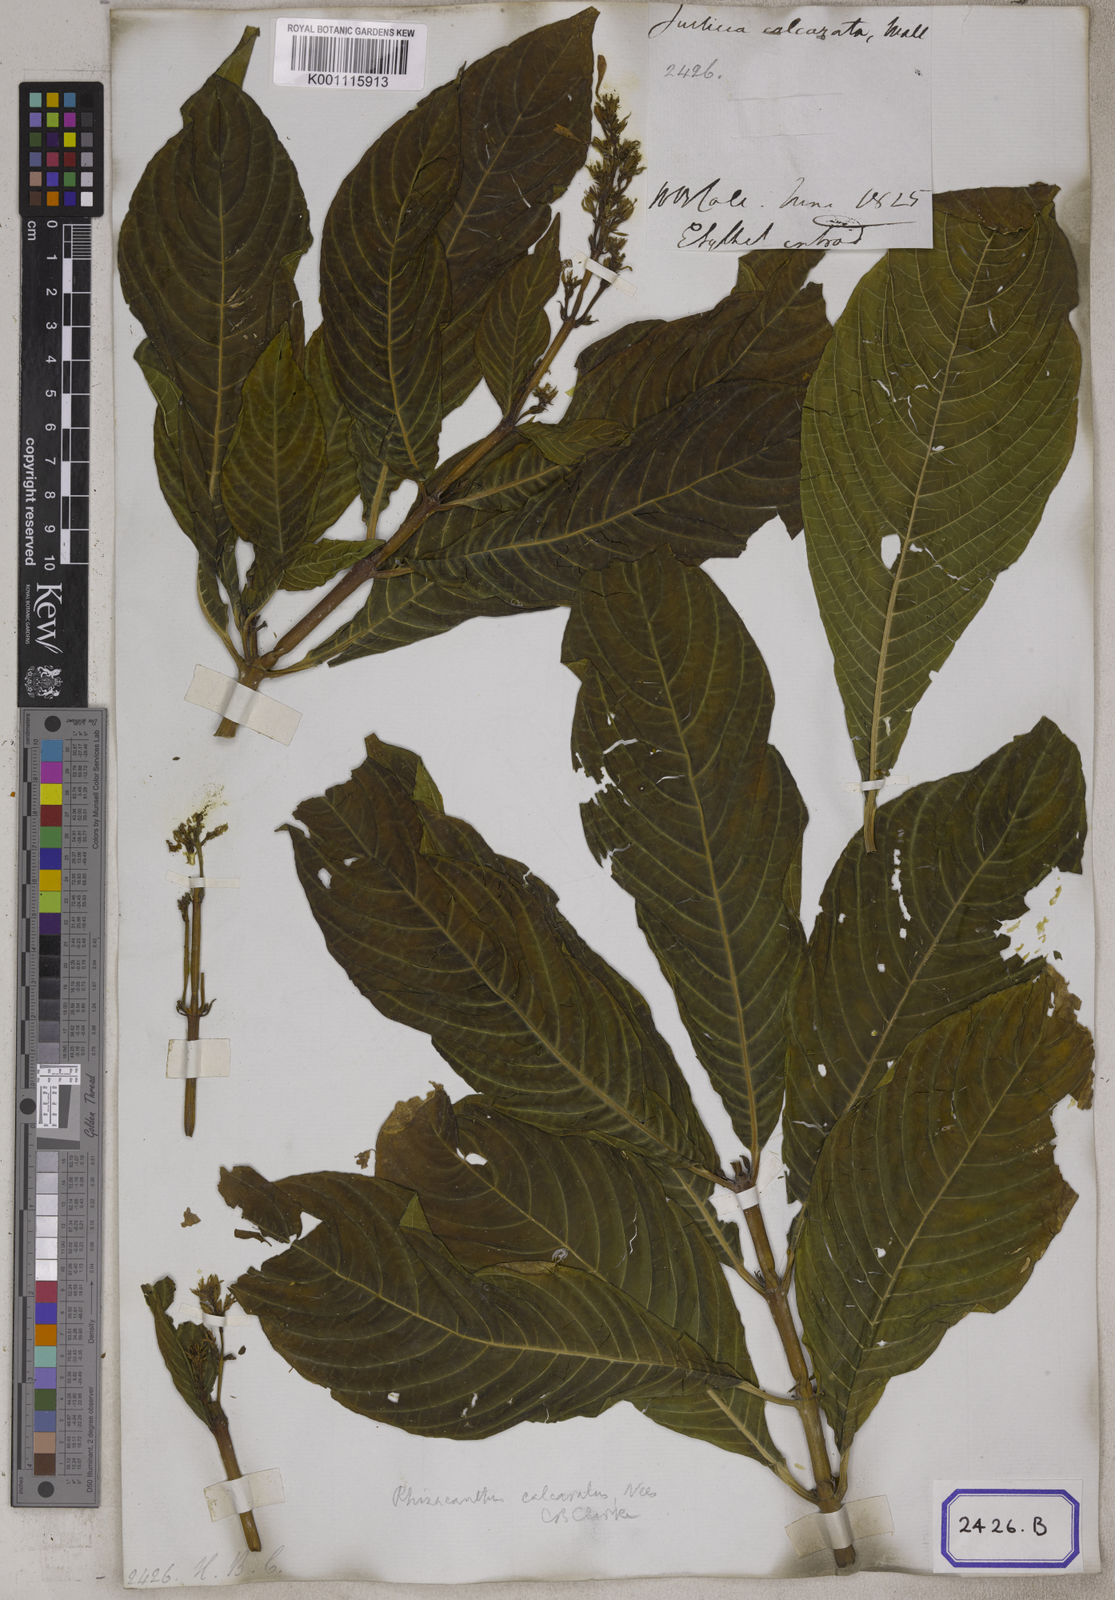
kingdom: Plantae
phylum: Tracheophyta
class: Magnoliopsida
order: Lamiales
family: Acanthaceae
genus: Rhinacanthus
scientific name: Rhinacanthus calcaratus
